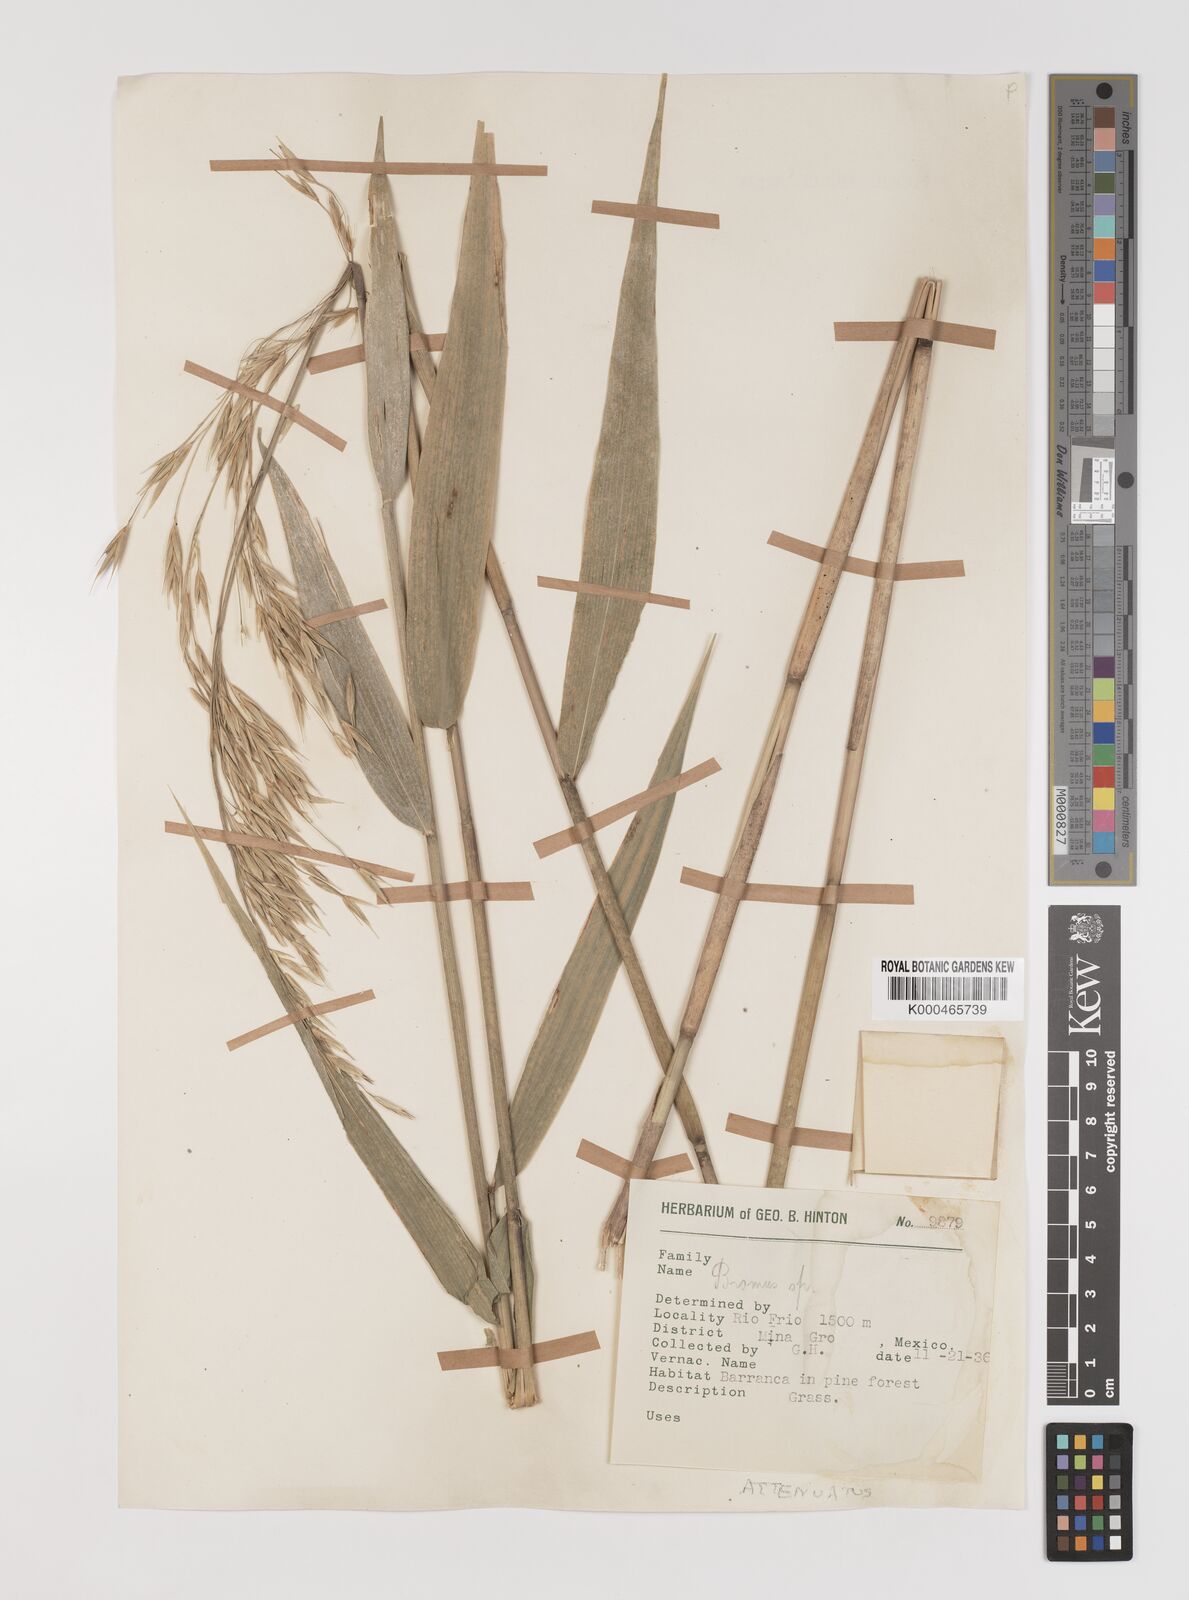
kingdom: Plantae
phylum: Tracheophyta
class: Liliopsida
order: Poales
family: Poaceae
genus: Bromus
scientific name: Bromus attenuatus
